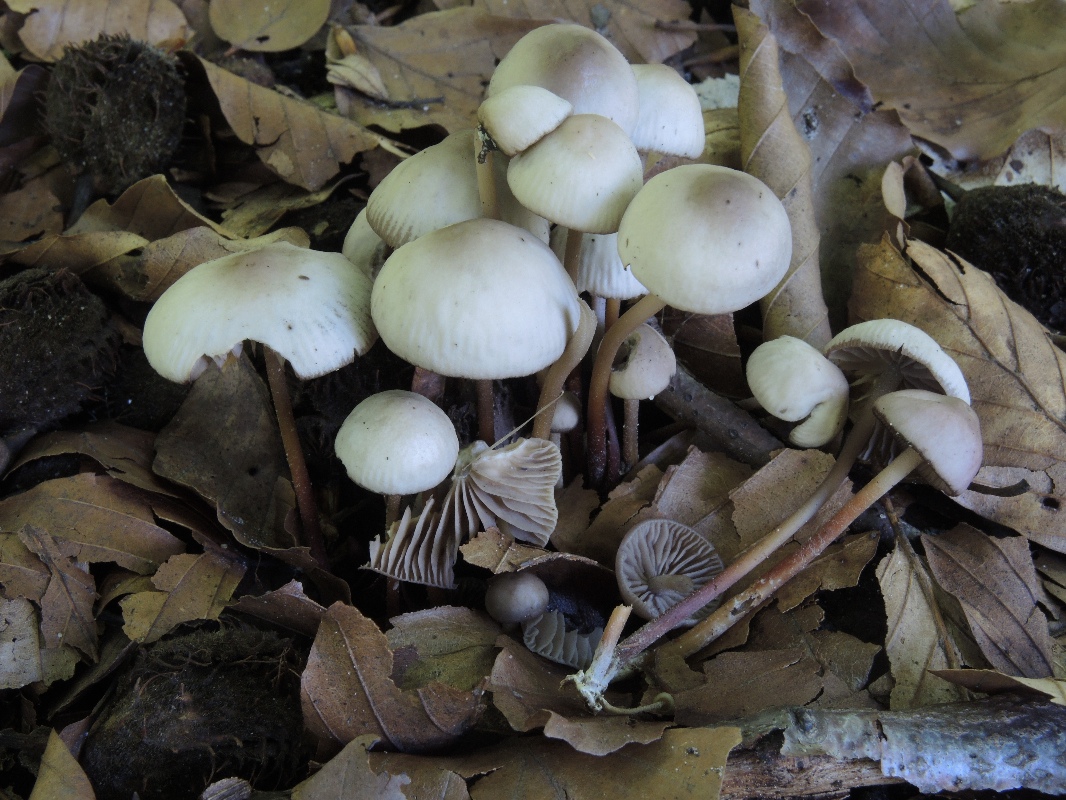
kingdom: Fungi
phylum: Basidiomycota
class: Agaricomycetes
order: Agaricales
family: Marasmiaceae
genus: Marasmius
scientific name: Marasmius wynneae
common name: hvælvet bruskhat
